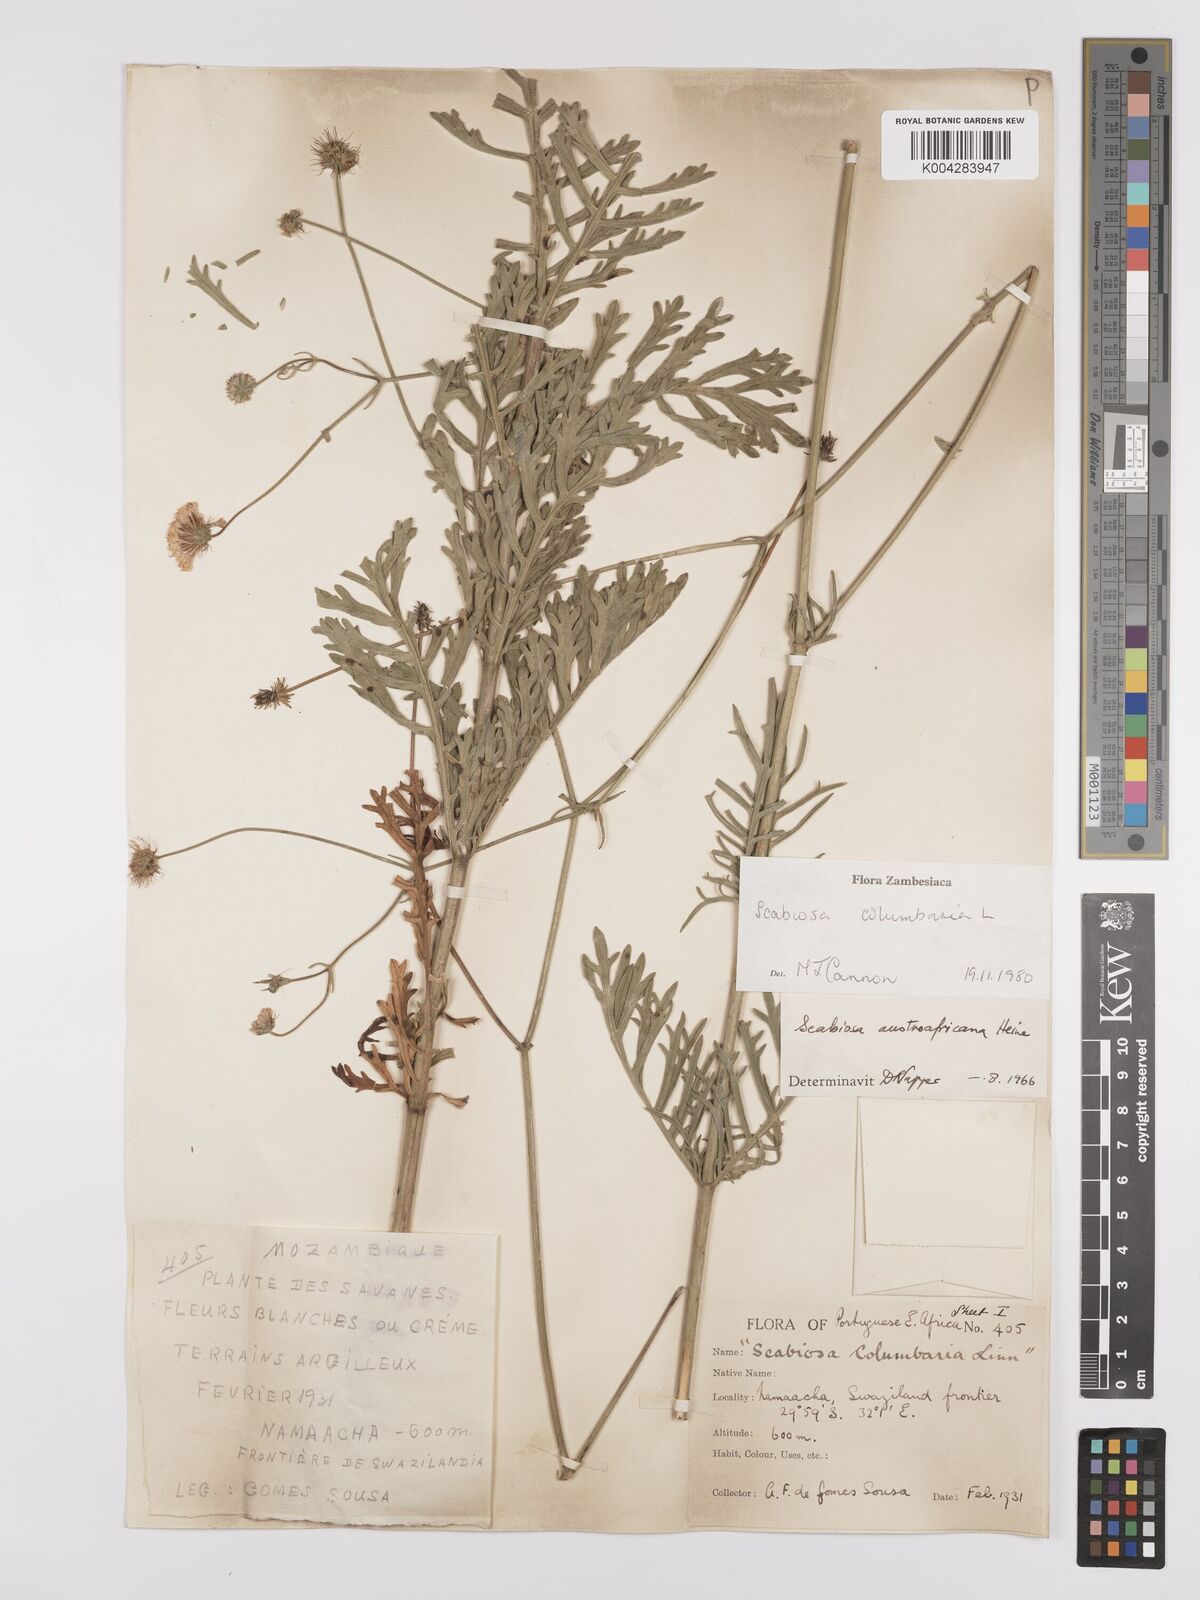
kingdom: Plantae
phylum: Tracheophyta
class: Magnoliopsida
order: Dipsacales
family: Caprifoliaceae
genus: Scabiosa
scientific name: Scabiosa austroafricana
